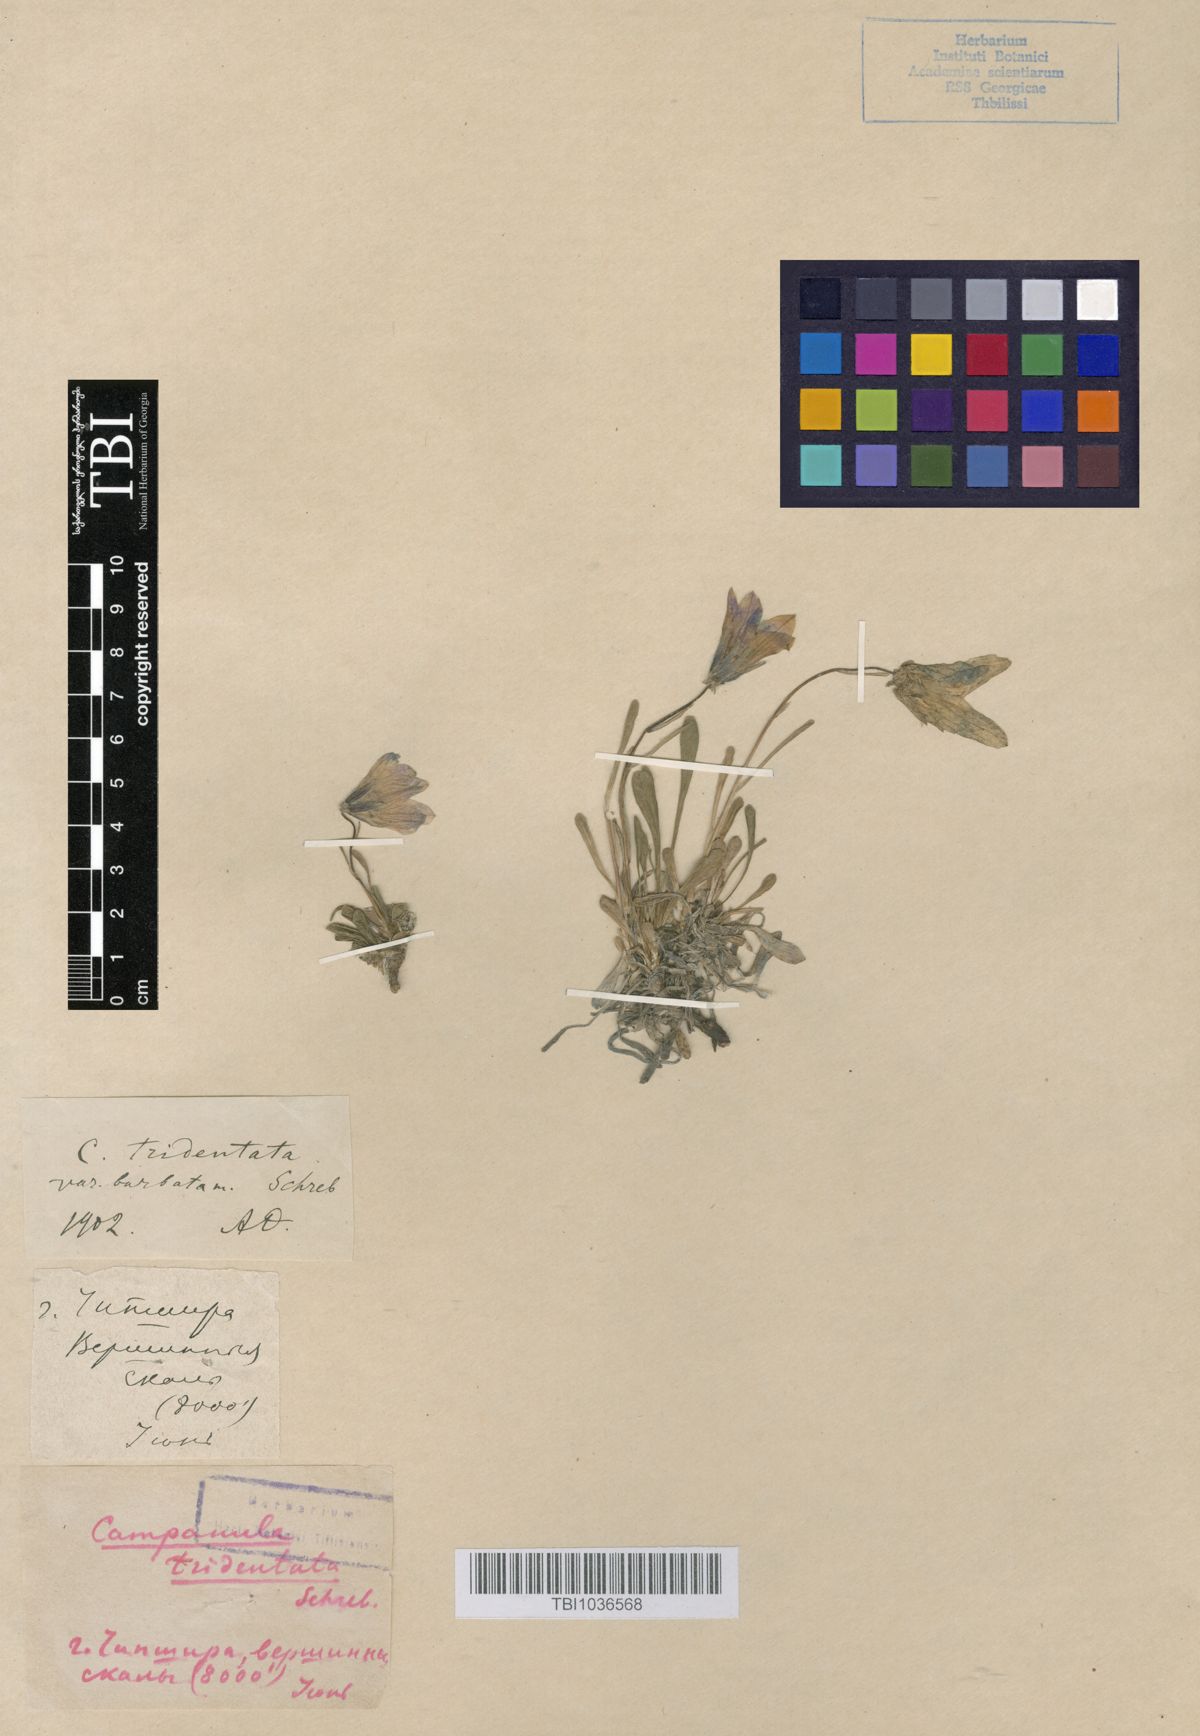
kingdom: Plantae
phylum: Tracheophyta
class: Magnoliopsida
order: Asterales
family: Campanulaceae
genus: Campanula
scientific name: Campanula tridentata
